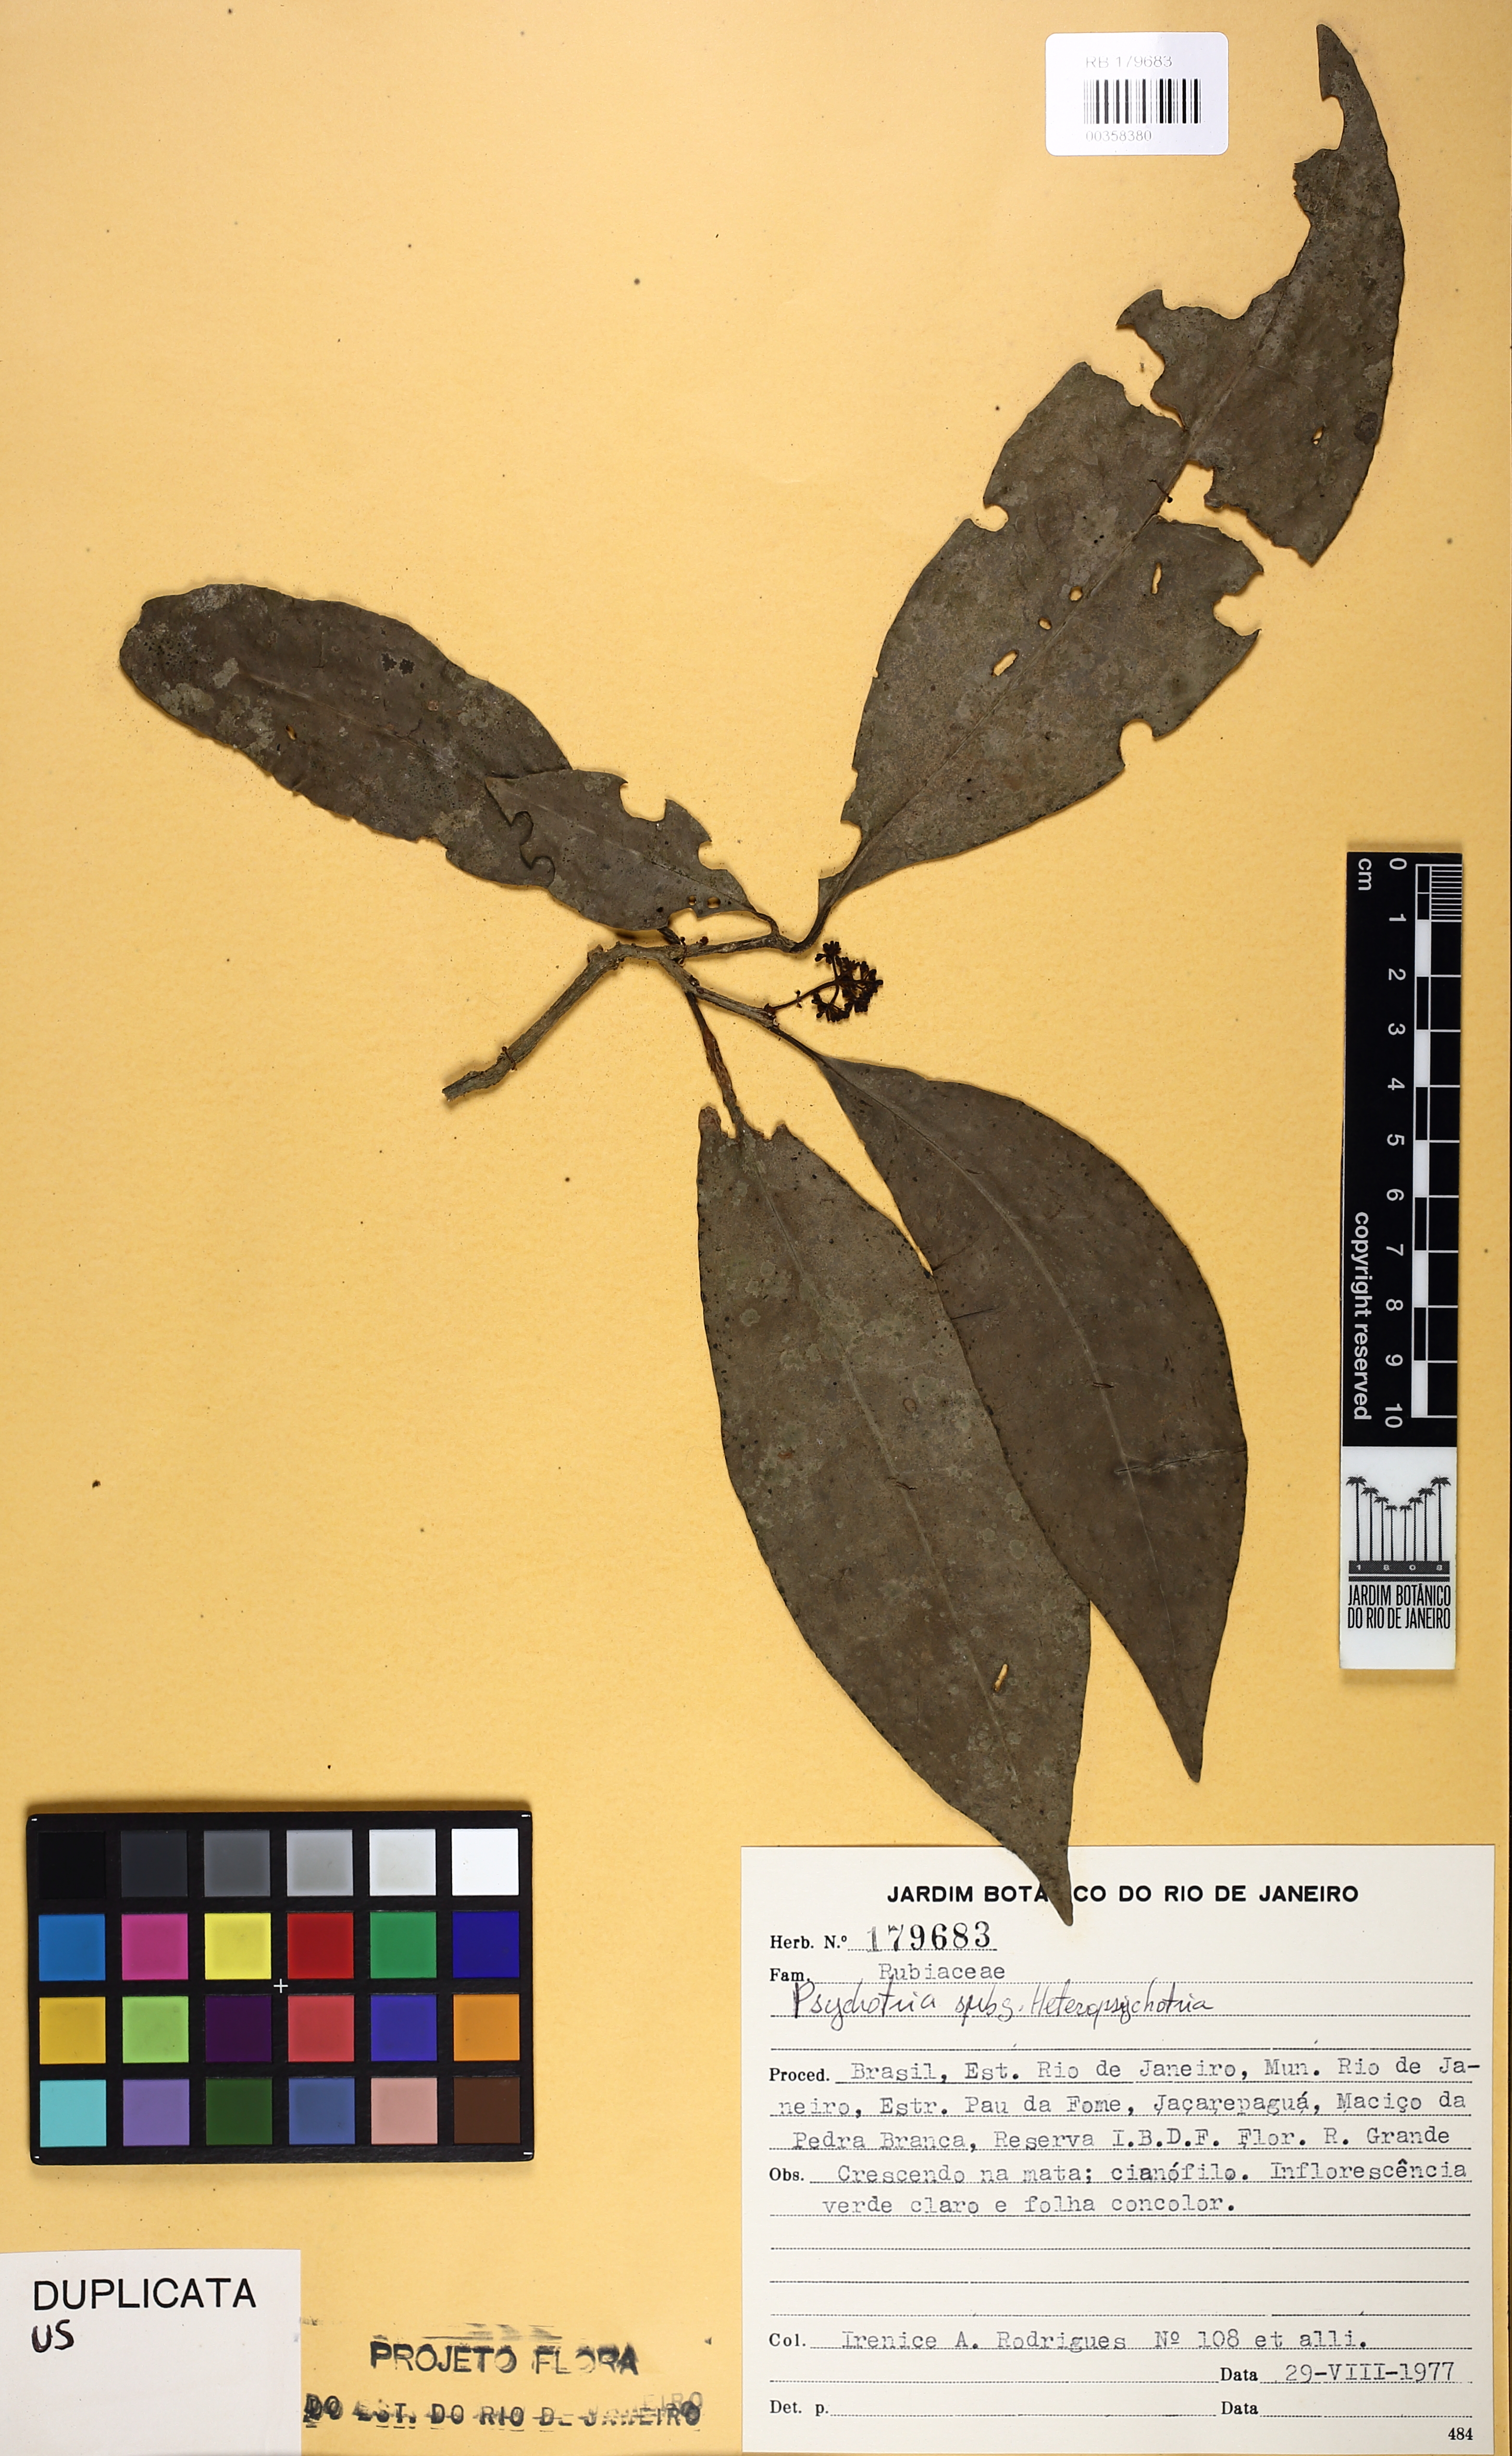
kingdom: Plantae
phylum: Tracheophyta
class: Magnoliopsida
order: Caryophyllales
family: Nyctaginaceae
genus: Guapira
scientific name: Guapira opposita
